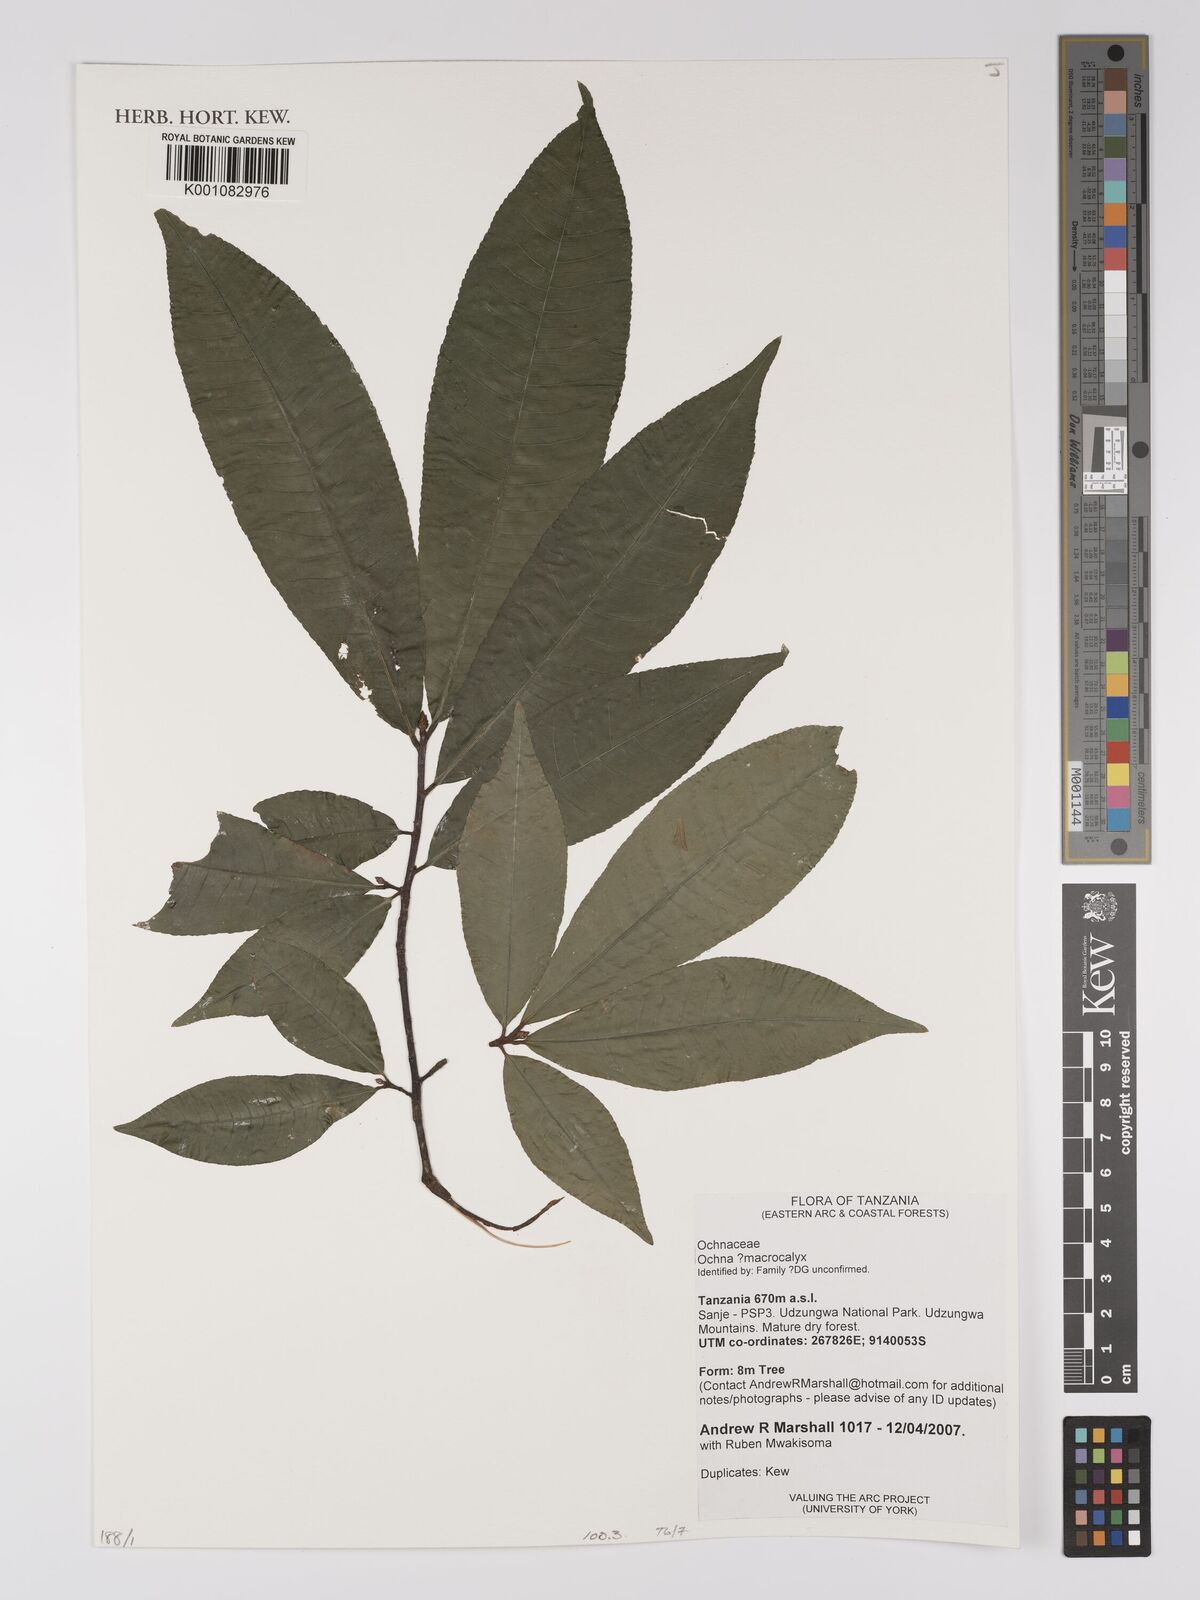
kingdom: Plantae
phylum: Tracheophyta
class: Magnoliopsida
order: Malpighiales
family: Ochnaceae
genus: Ochna
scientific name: Ochna macrocalyx
